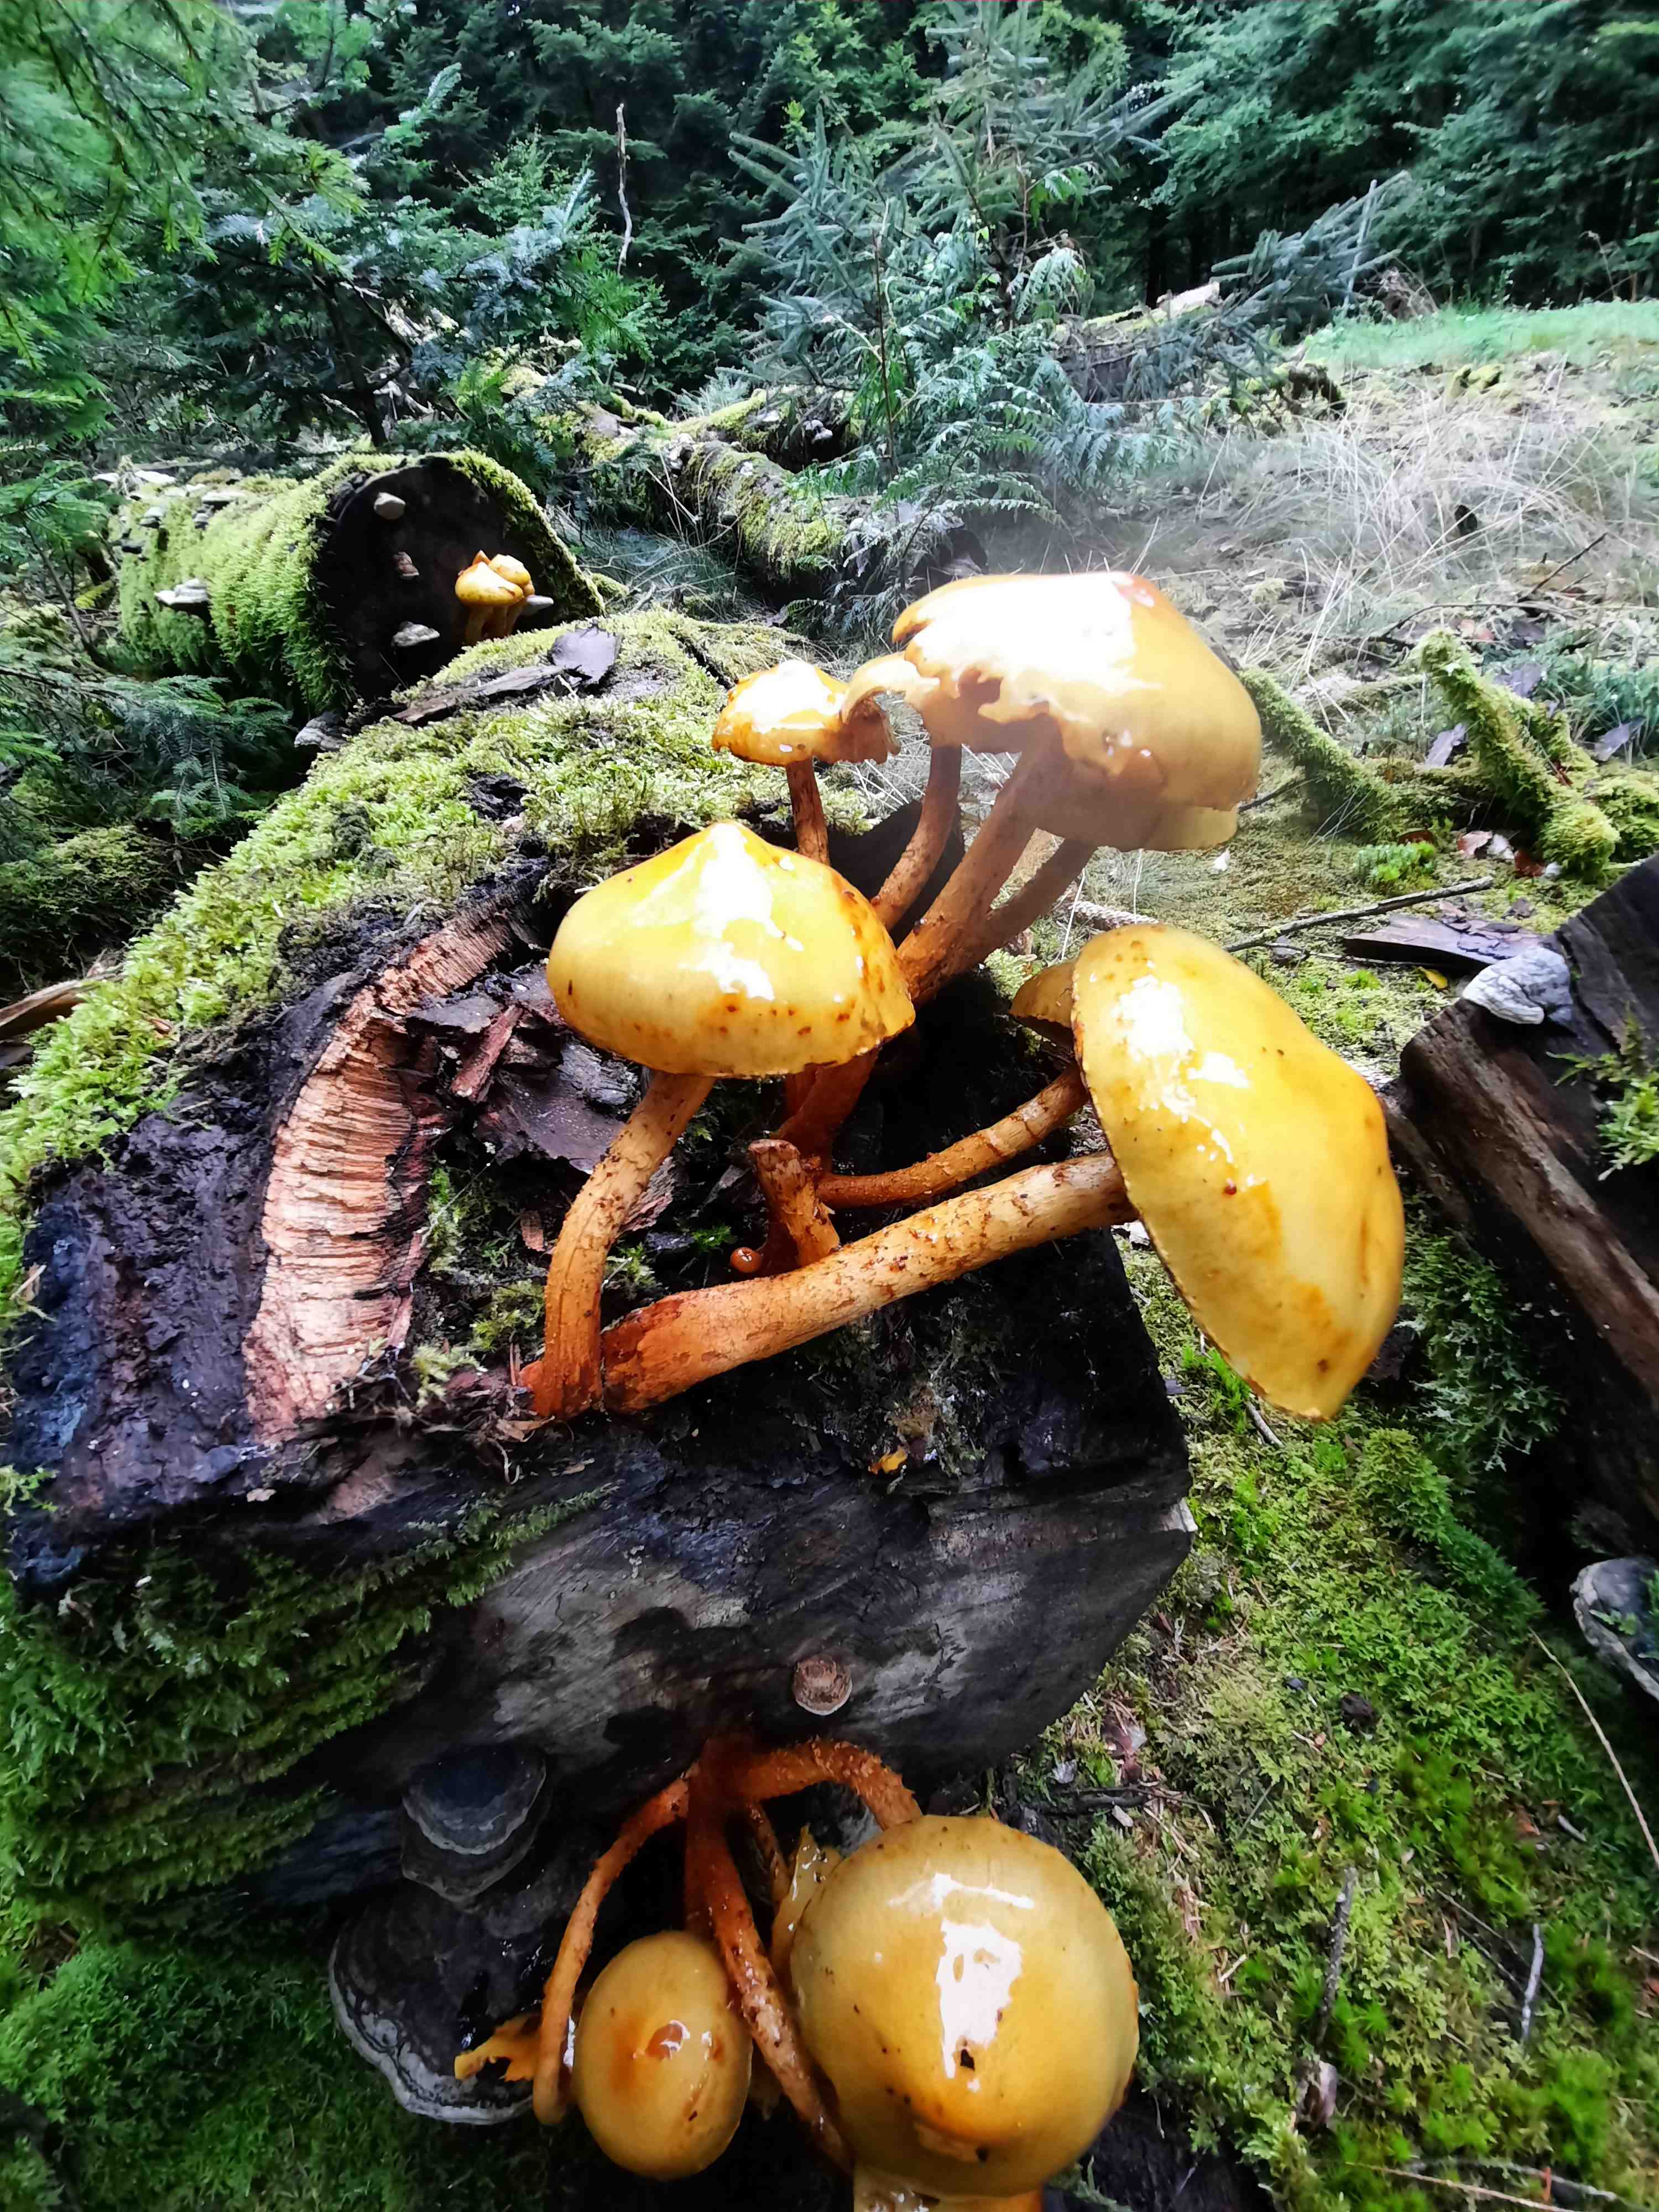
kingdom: Fungi
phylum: Basidiomycota
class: Agaricomycetes
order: Agaricales
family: Strophariaceae
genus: Pholiota
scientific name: Pholiota adiposa
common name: højtsiddende skælhat
